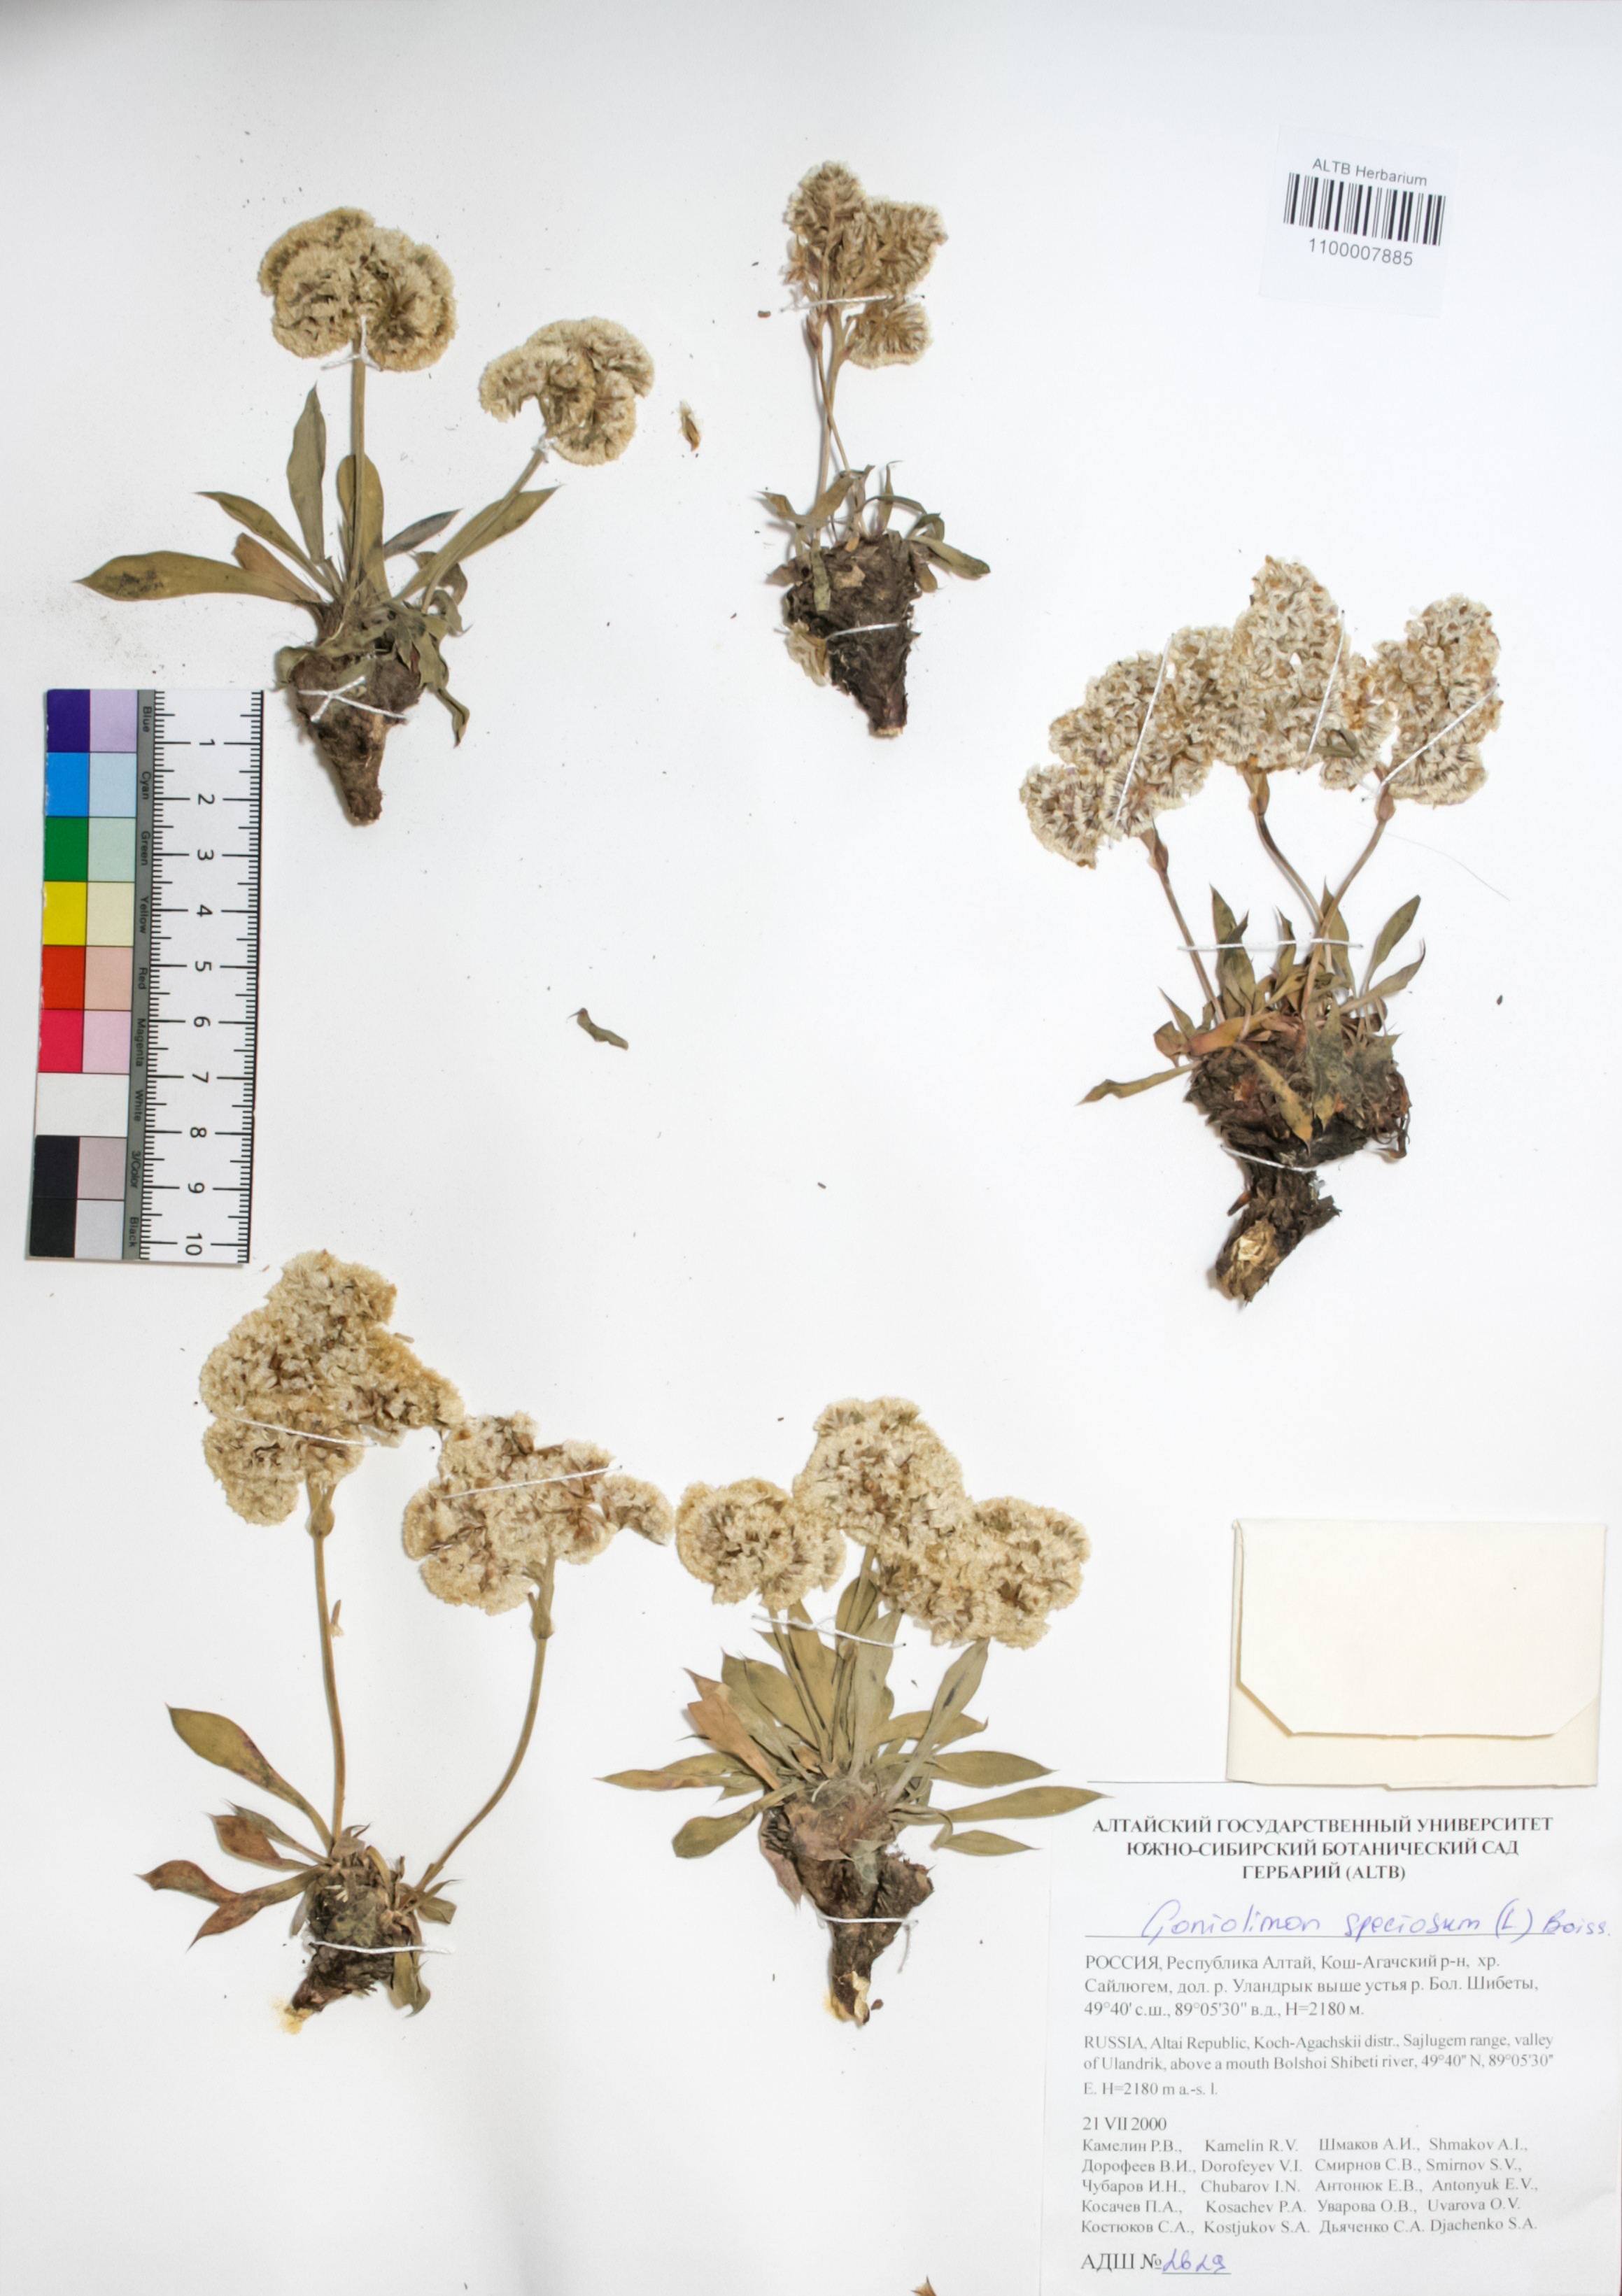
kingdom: Plantae
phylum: Tracheophyta
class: Magnoliopsida
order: Caryophyllales
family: Plumbaginaceae
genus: Goniolimon
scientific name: Goniolimon speciosum
